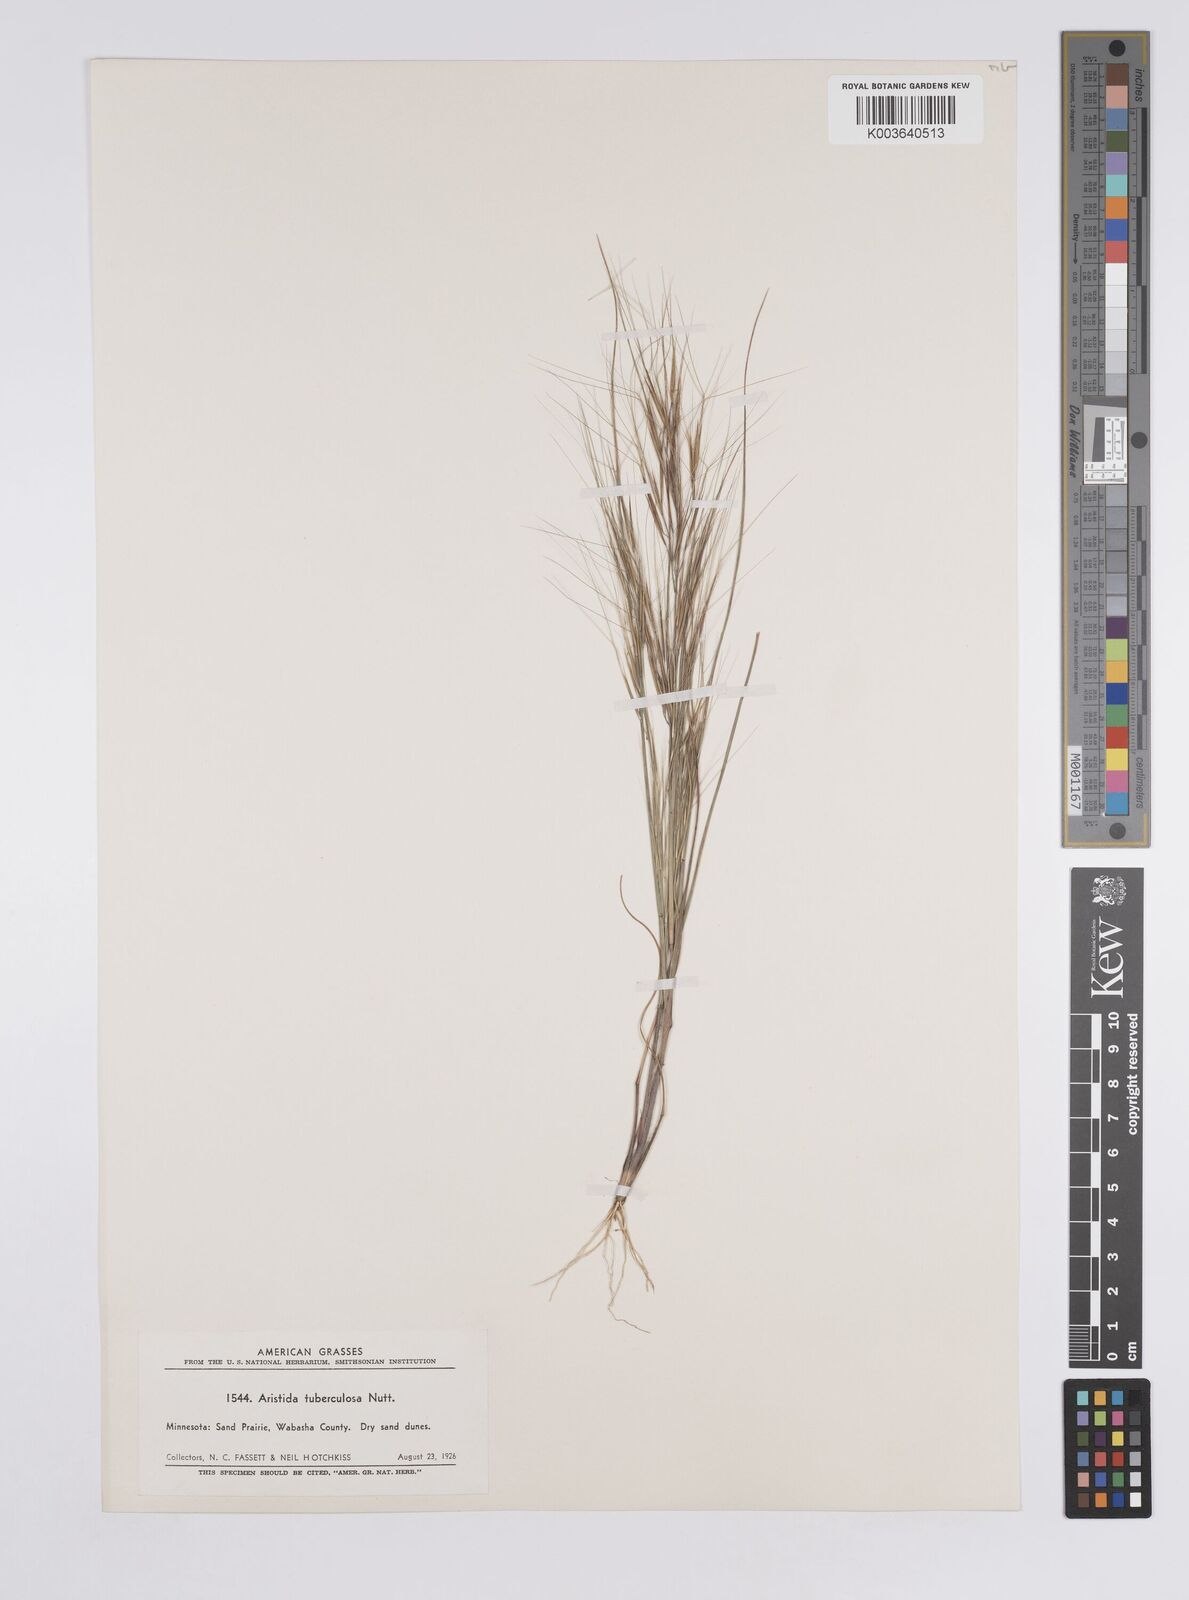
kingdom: Plantae
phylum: Tracheophyta
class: Liliopsida
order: Poales
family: Poaceae
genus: Aristida
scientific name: Aristida tuberculosa
